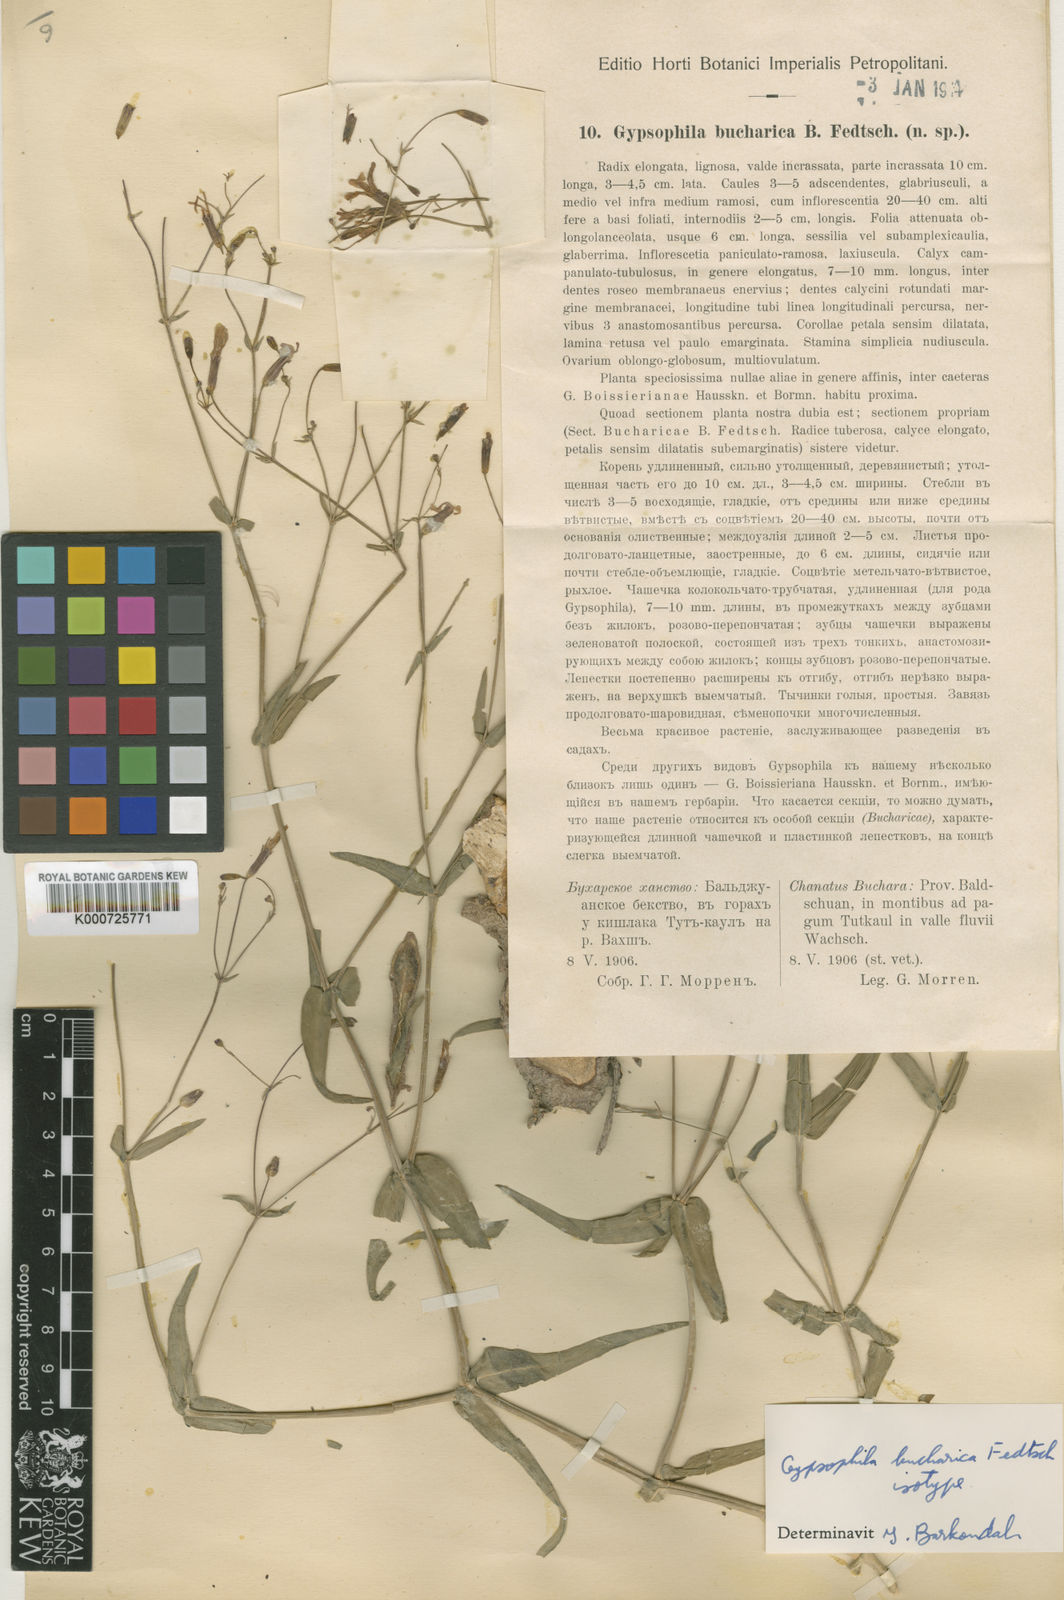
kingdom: Plantae
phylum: Tracheophyta
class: Magnoliopsida
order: Caryophyllales
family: Caryophyllaceae
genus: Gypsophila
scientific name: Gypsophila bucharica
